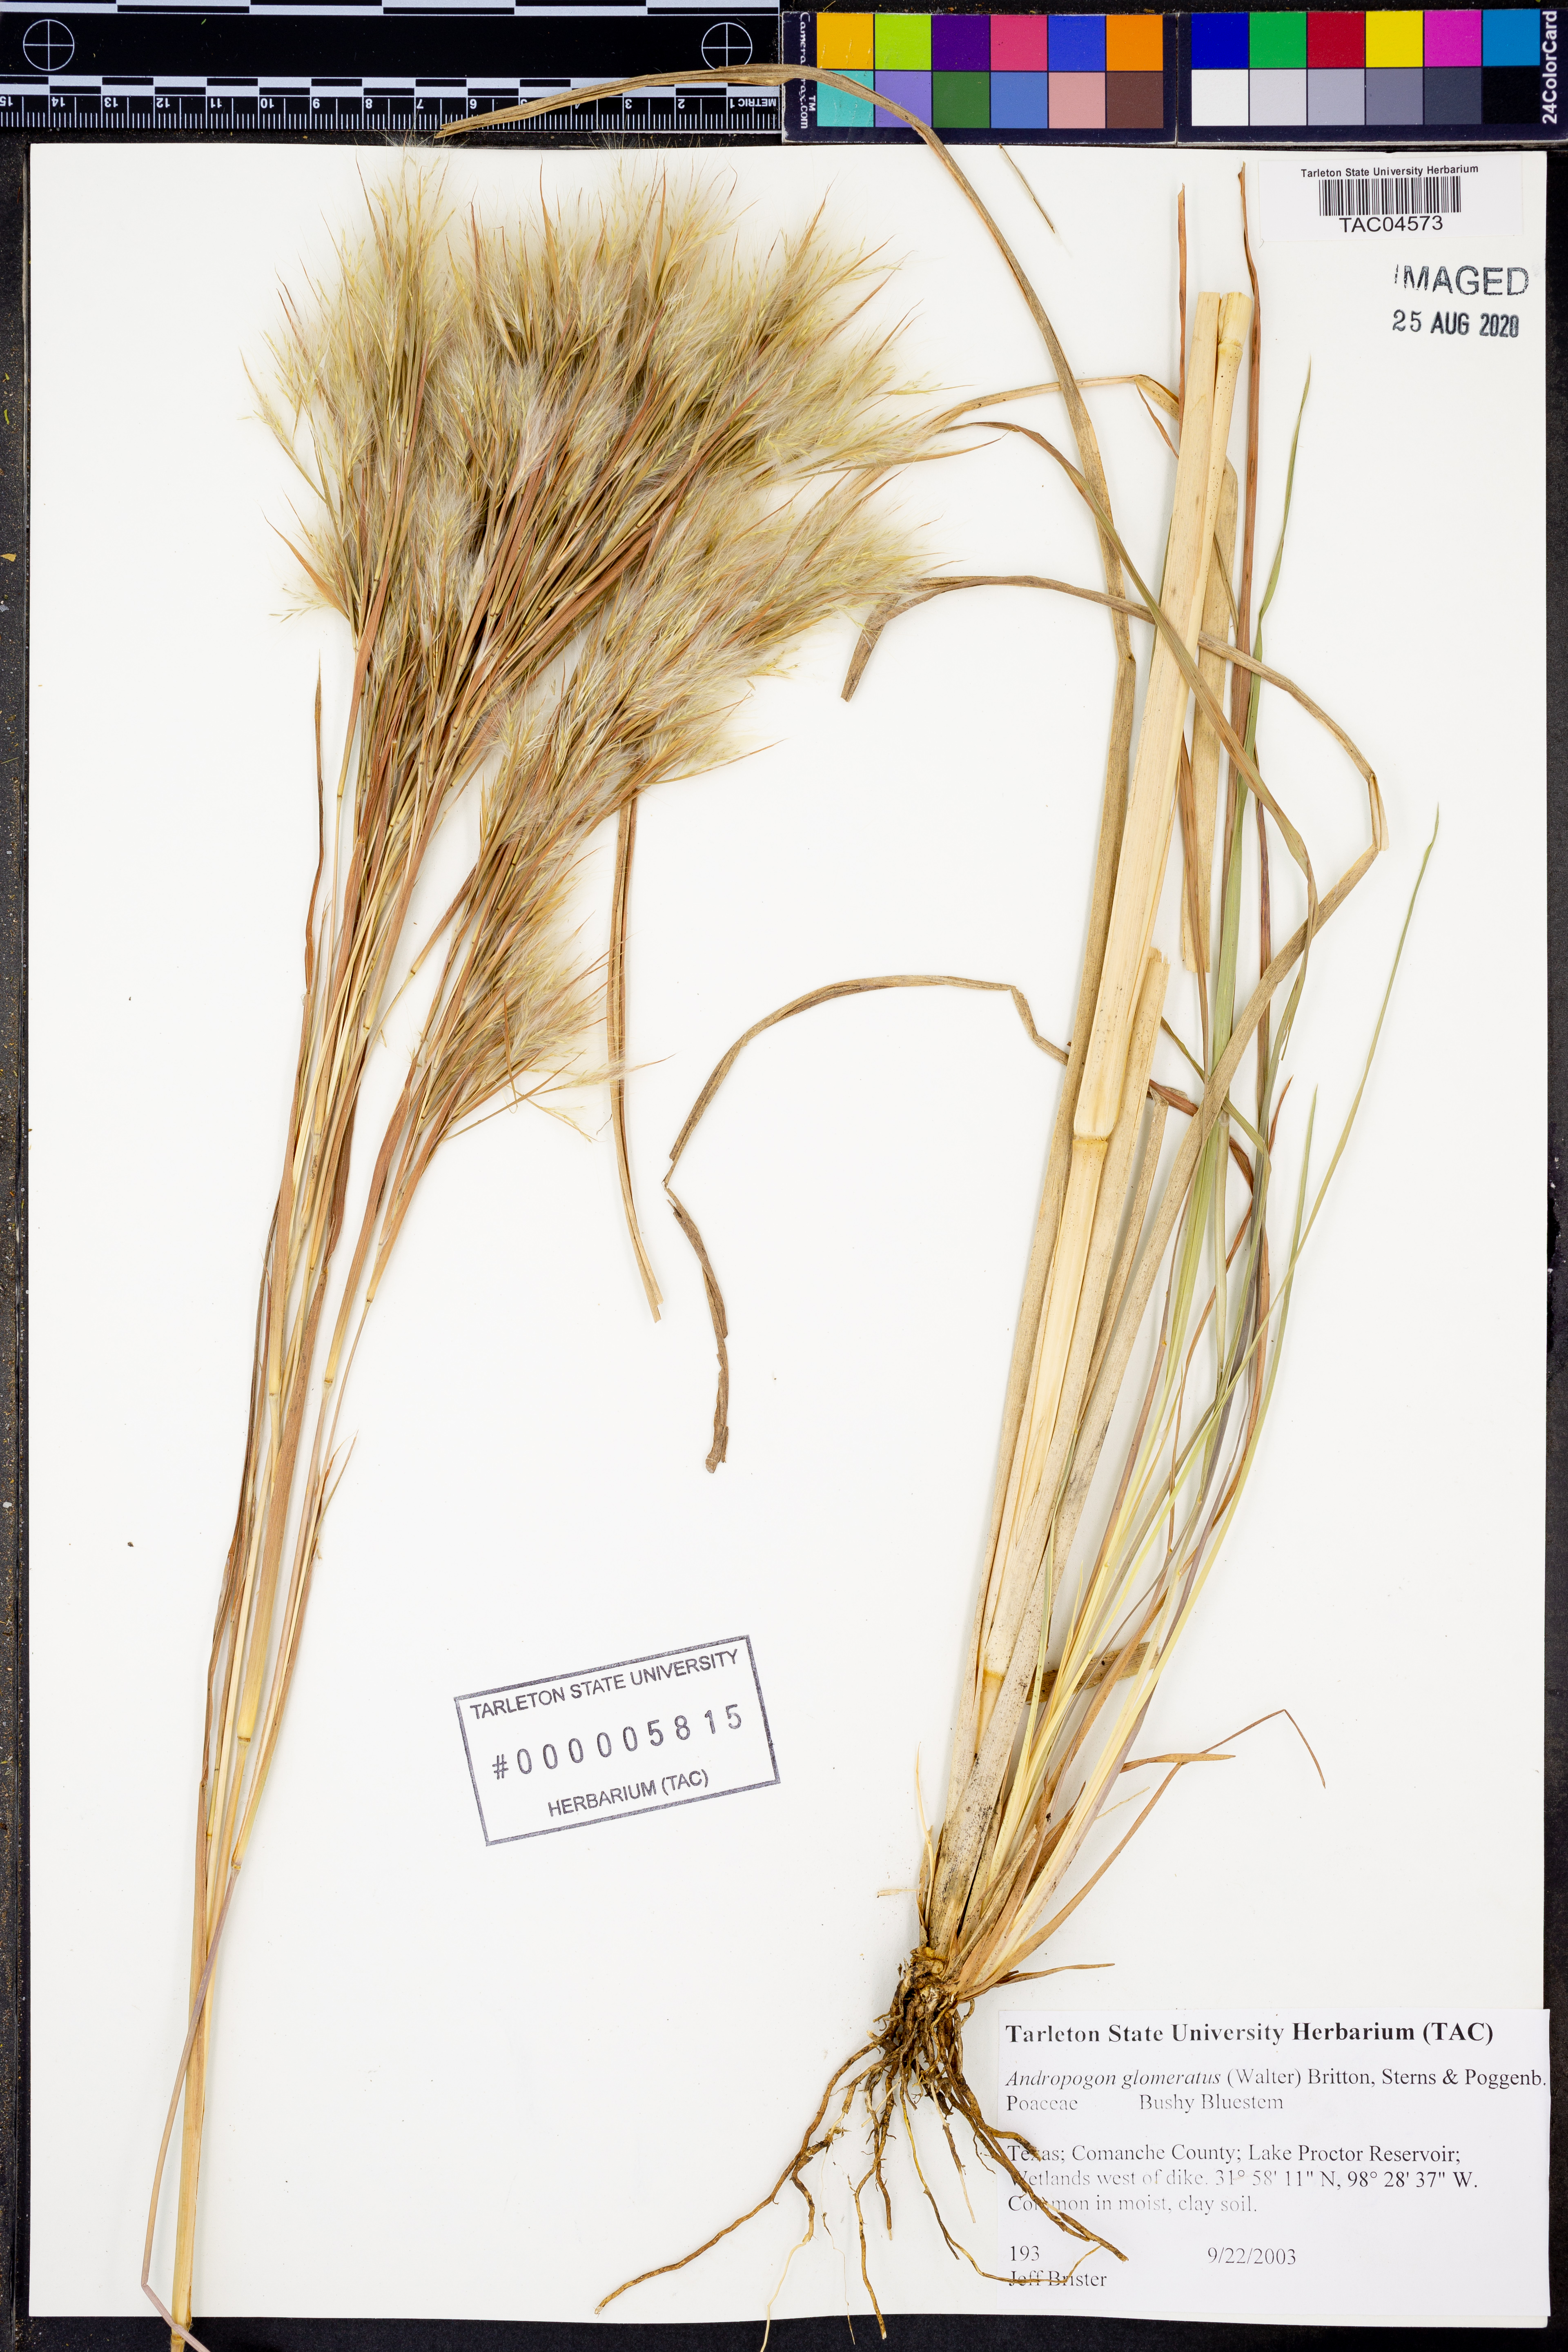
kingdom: Plantae
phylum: Tracheophyta
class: Liliopsida
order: Poales
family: Poaceae
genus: Andropogon
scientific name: Andropogon glomeratus
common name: Bushy beard grass
